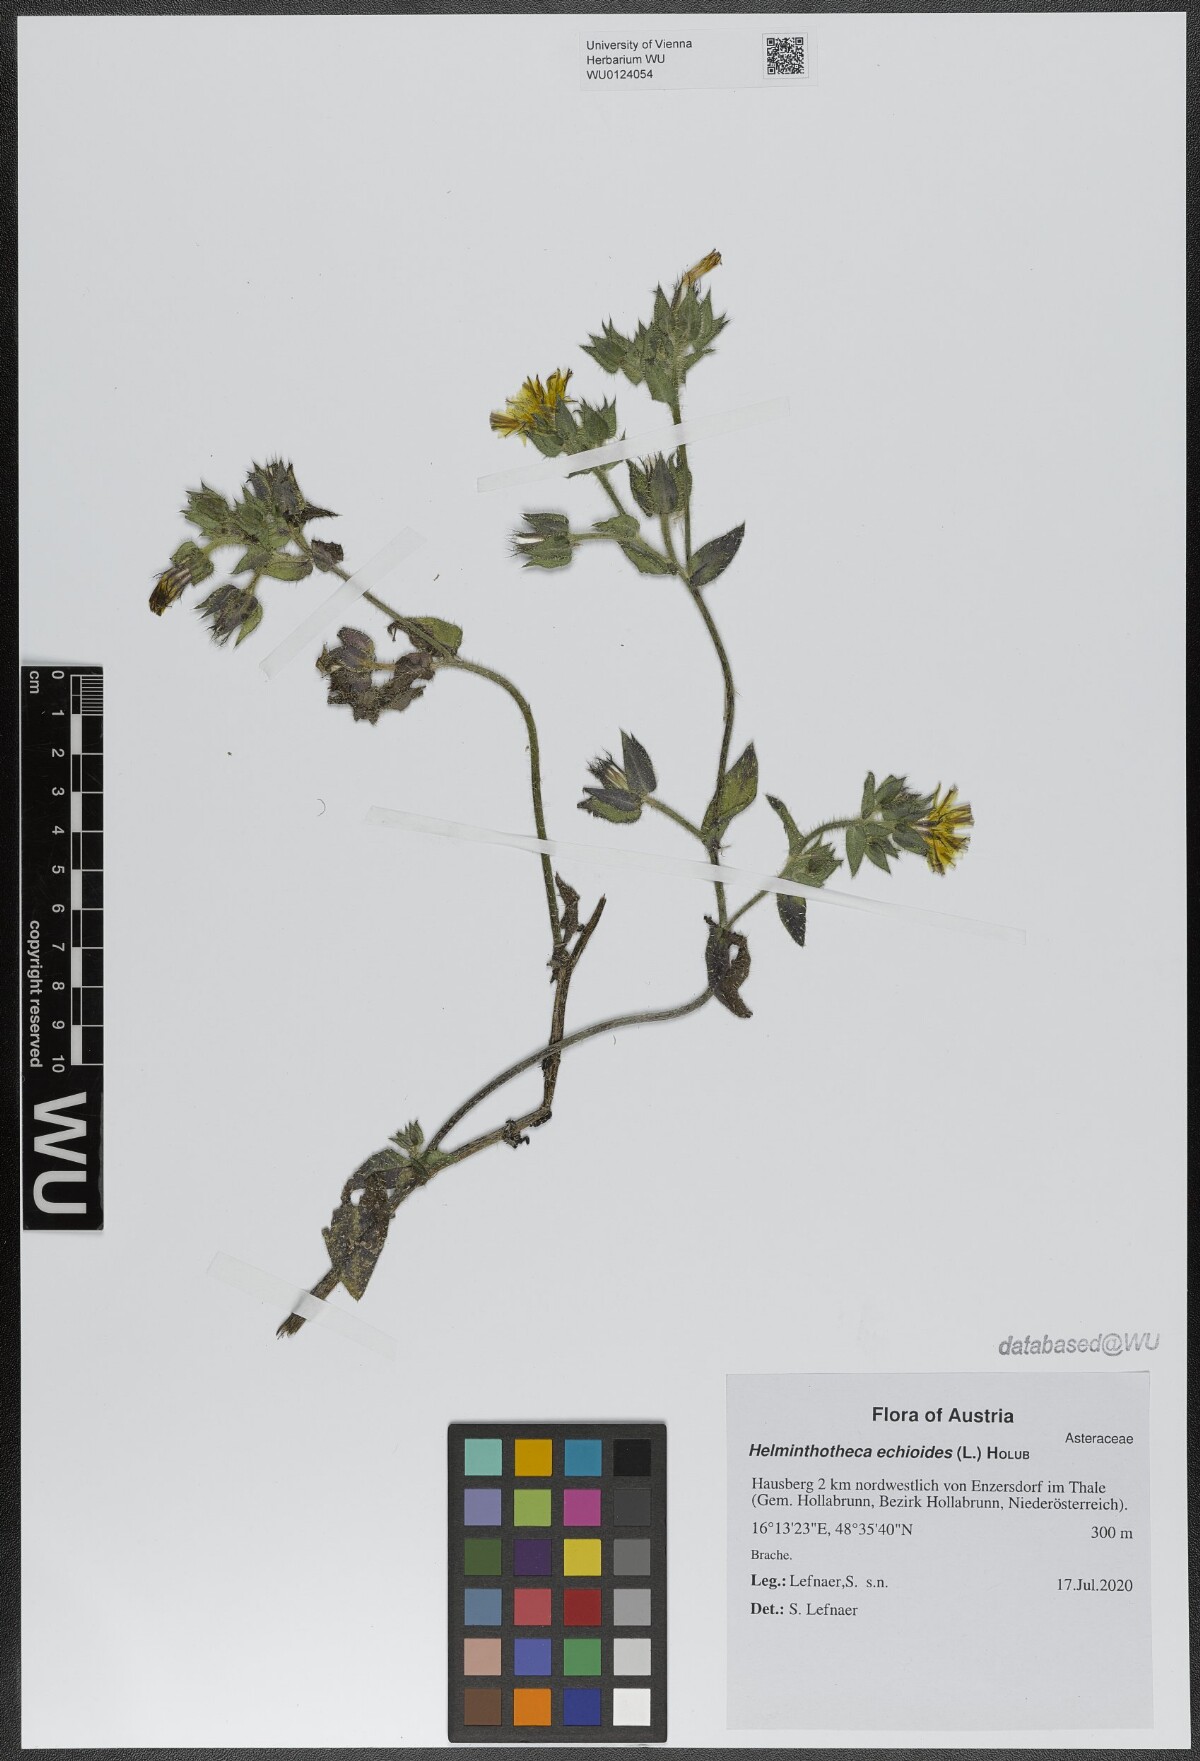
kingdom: Plantae
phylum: Tracheophyta
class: Magnoliopsida
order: Asterales
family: Asteraceae
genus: Helminthotheca
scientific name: Helminthotheca echioides
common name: Ox-tongue
